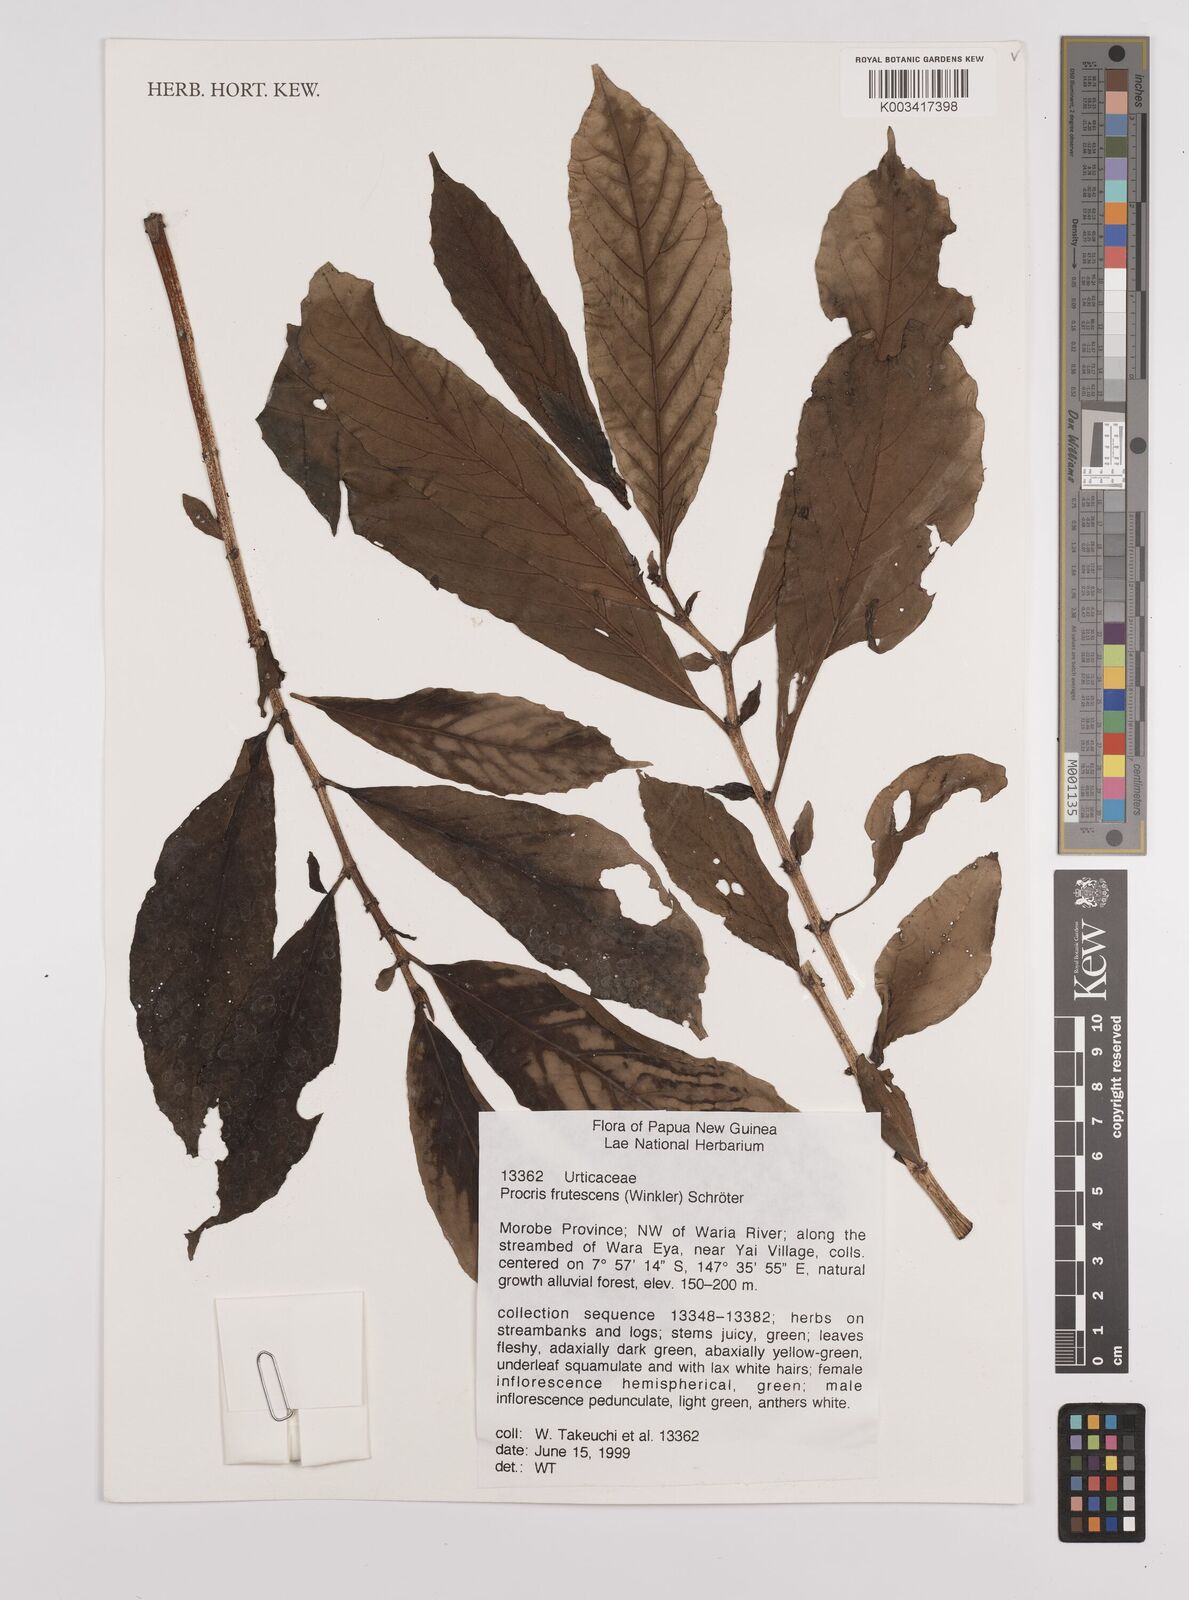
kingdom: Plantae
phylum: Tracheophyta
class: Magnoliopsida
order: Rosales
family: Urticaceae
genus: Procris
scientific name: Procris frutescens
